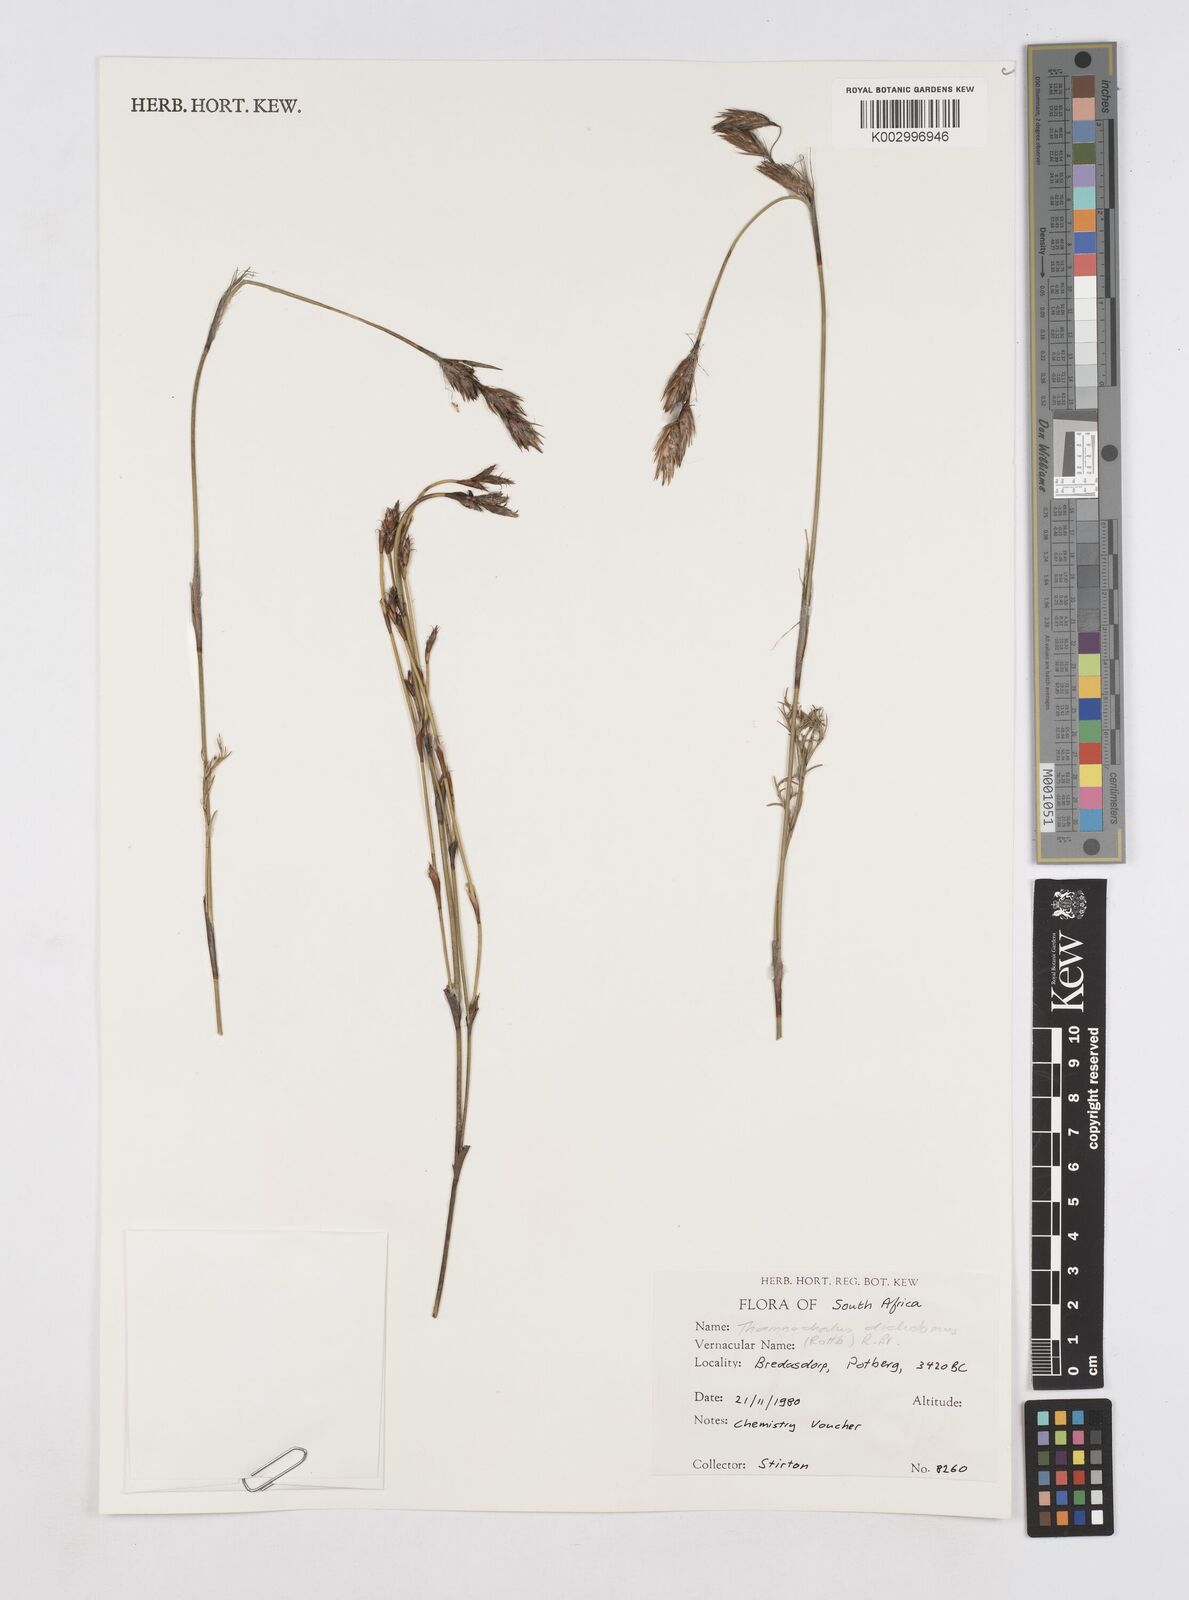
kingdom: Plantae
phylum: Tracheophyta
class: Liliopsida
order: Poales
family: Restionaceae
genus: Thamnochortus
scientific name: Thamnochortus lucens
